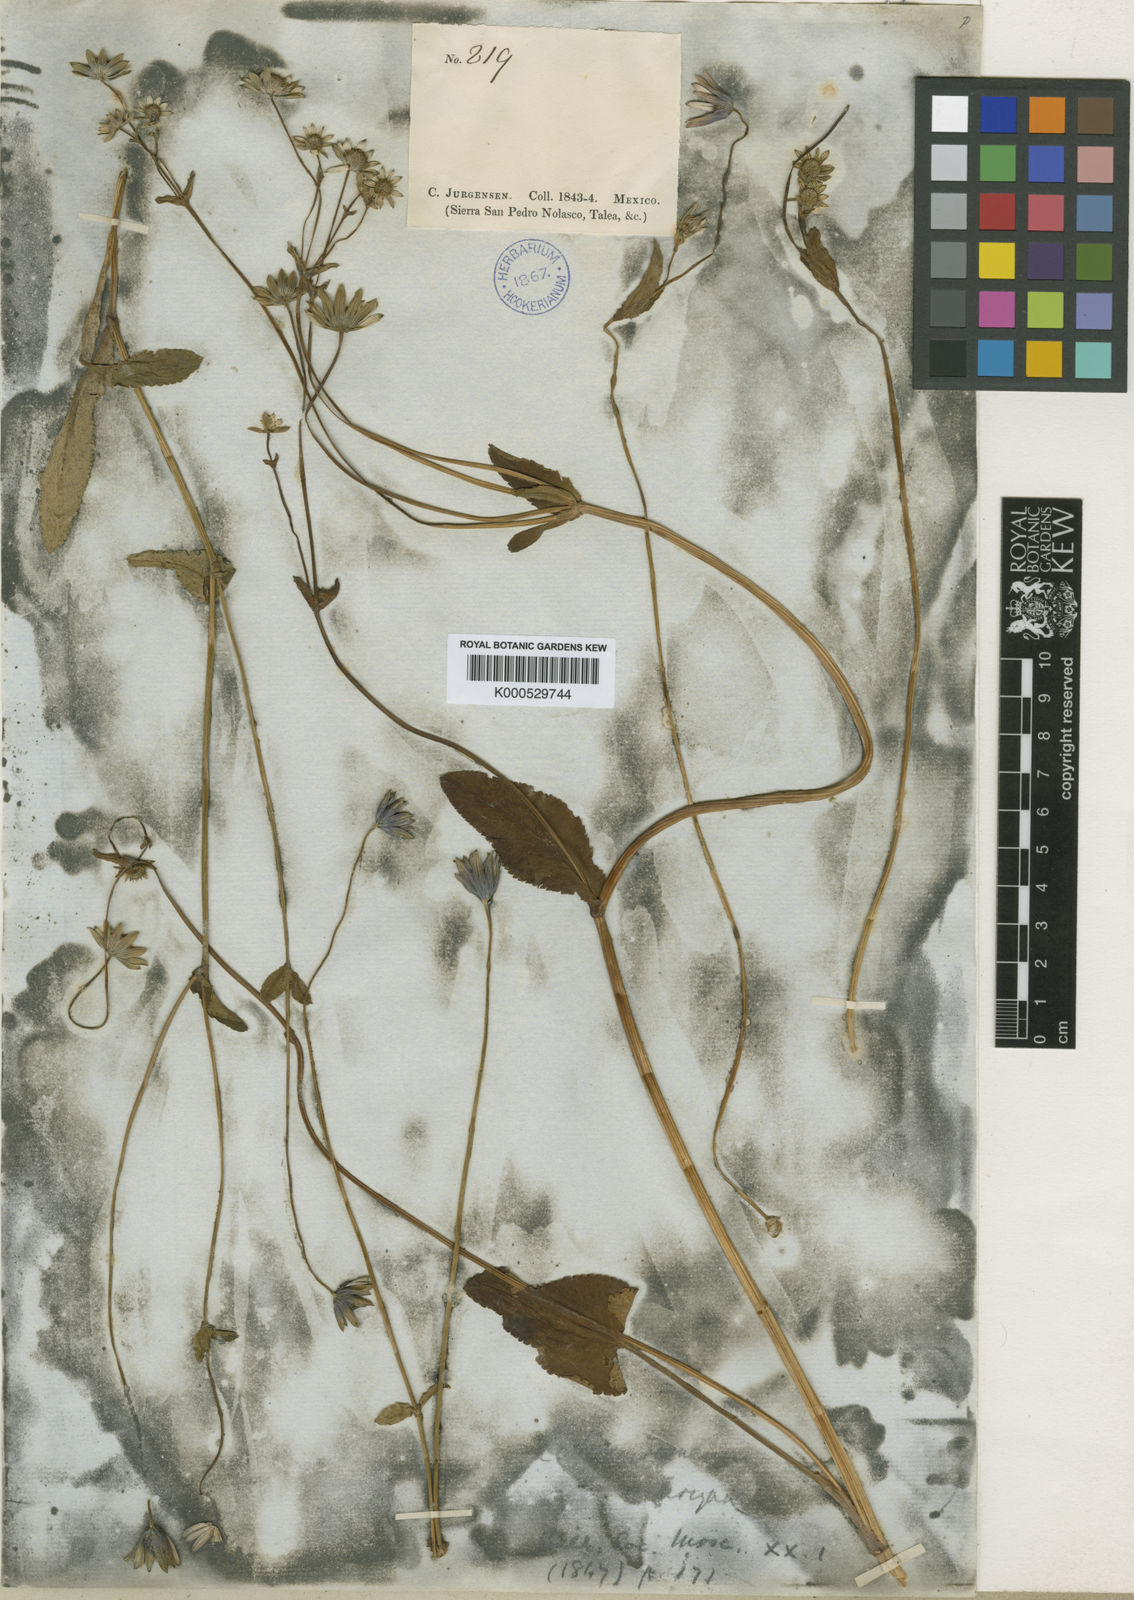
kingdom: Plantae
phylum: Tracheophyta
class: Magnoliopsida
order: Apiales
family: Apiaceae
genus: Eryngium
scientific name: Eryngium gracile
